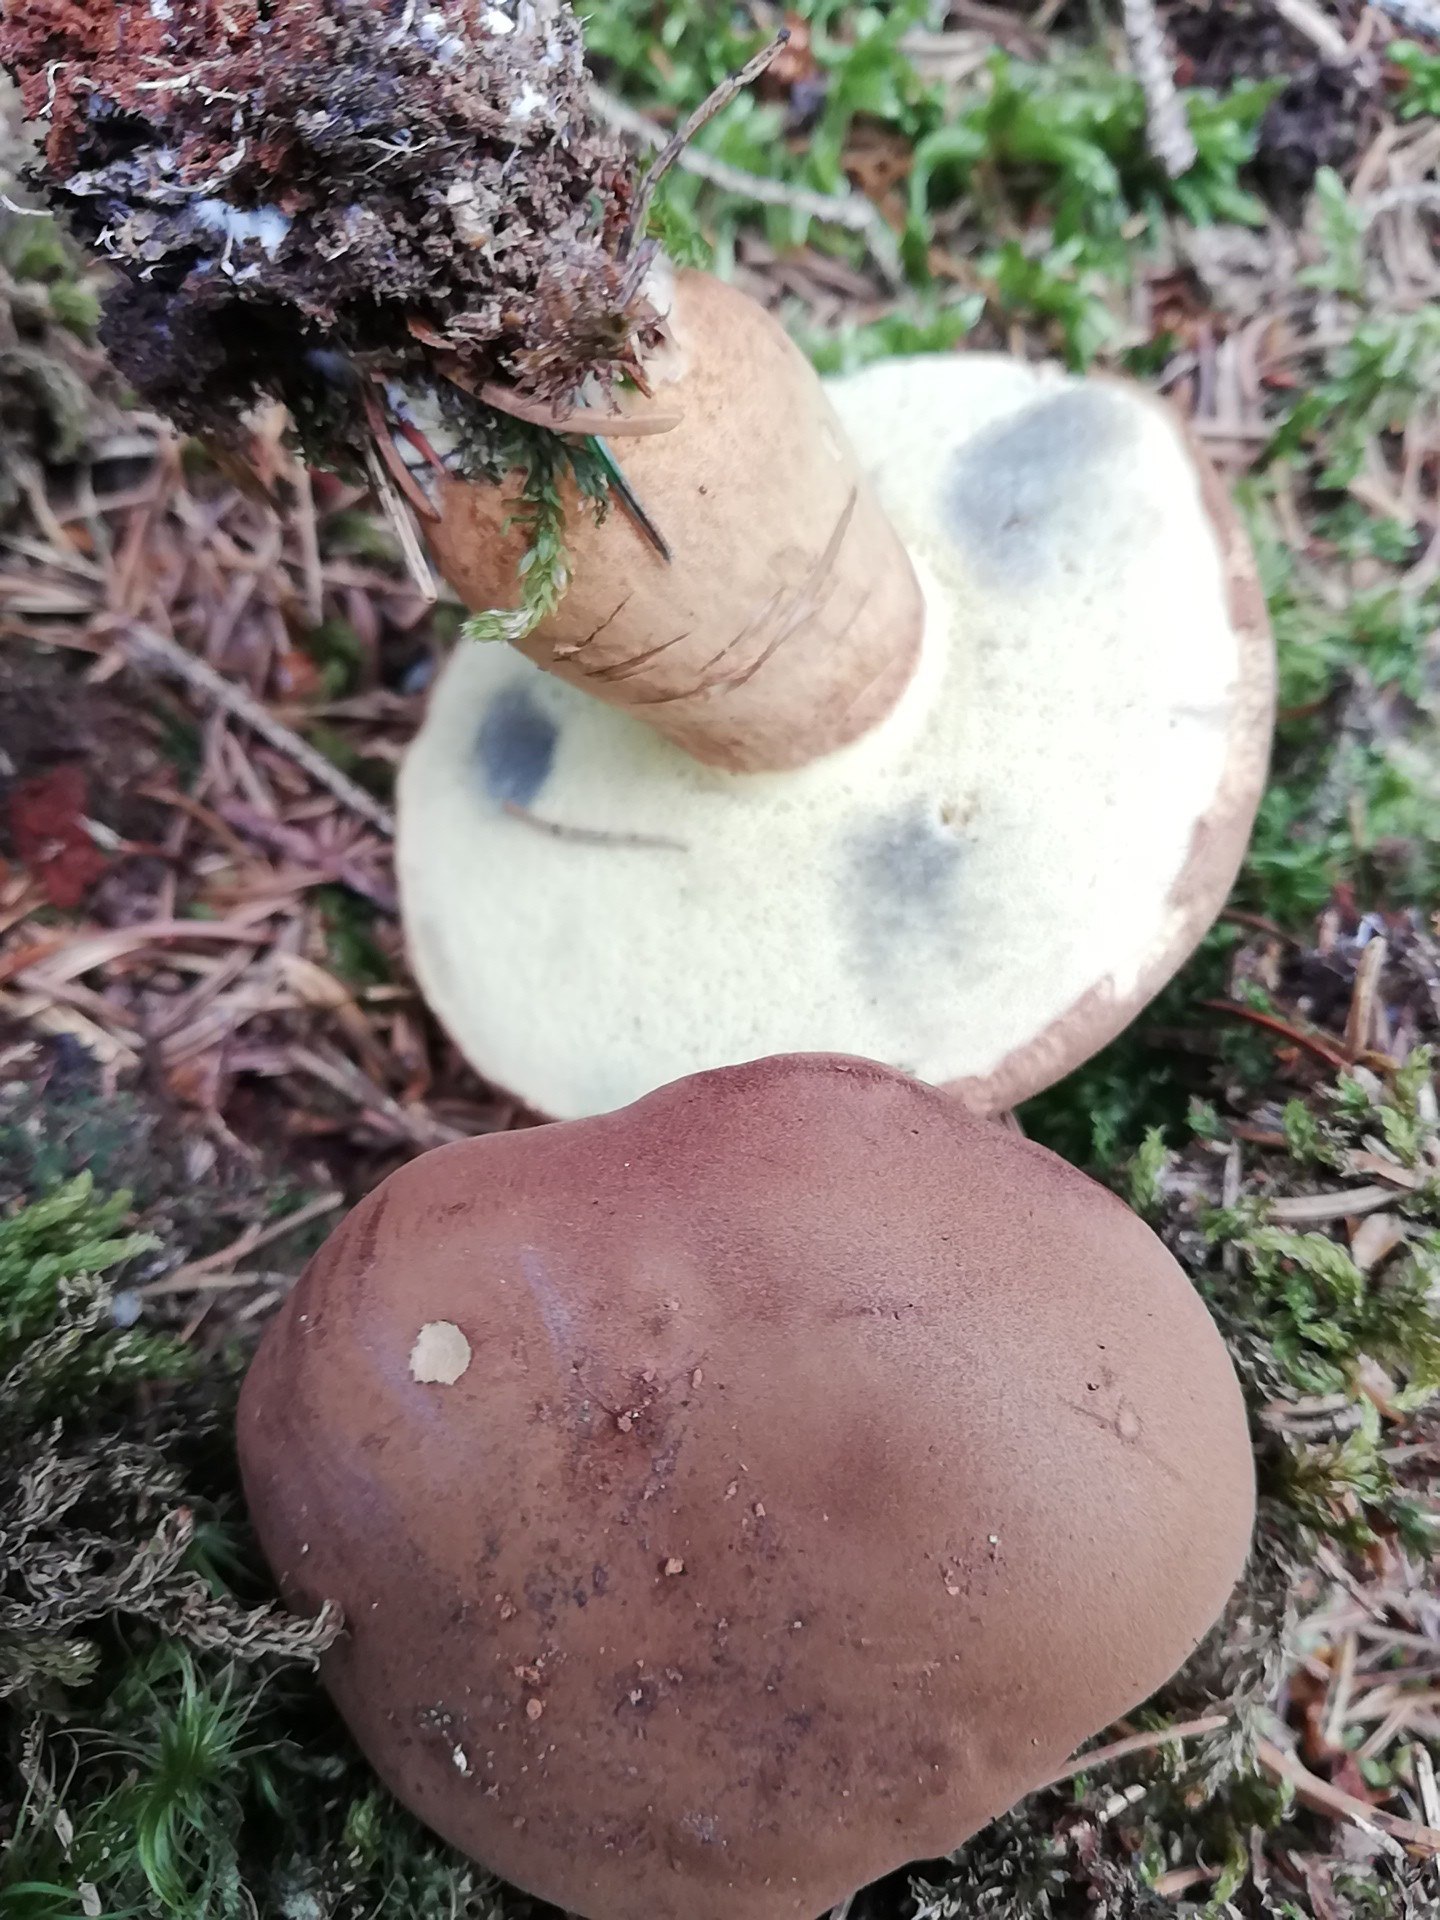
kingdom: Fungi
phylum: Basidiomycota
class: Agaricomycetes
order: Boletales
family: Boletaceae
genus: Imleria
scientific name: Imleria badia
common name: brunstokket rørhat
